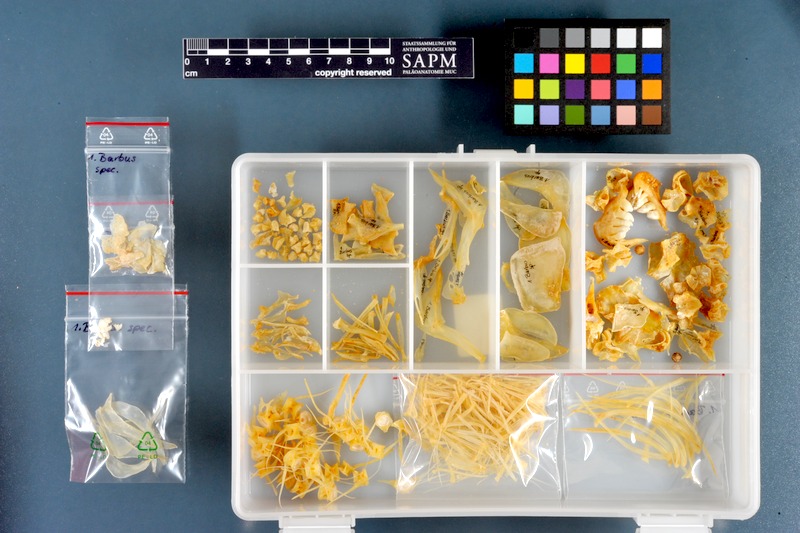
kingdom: Animalia
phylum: Chordata
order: Cypriniformes
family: Cyprinidae
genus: Barbus
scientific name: Barbus
